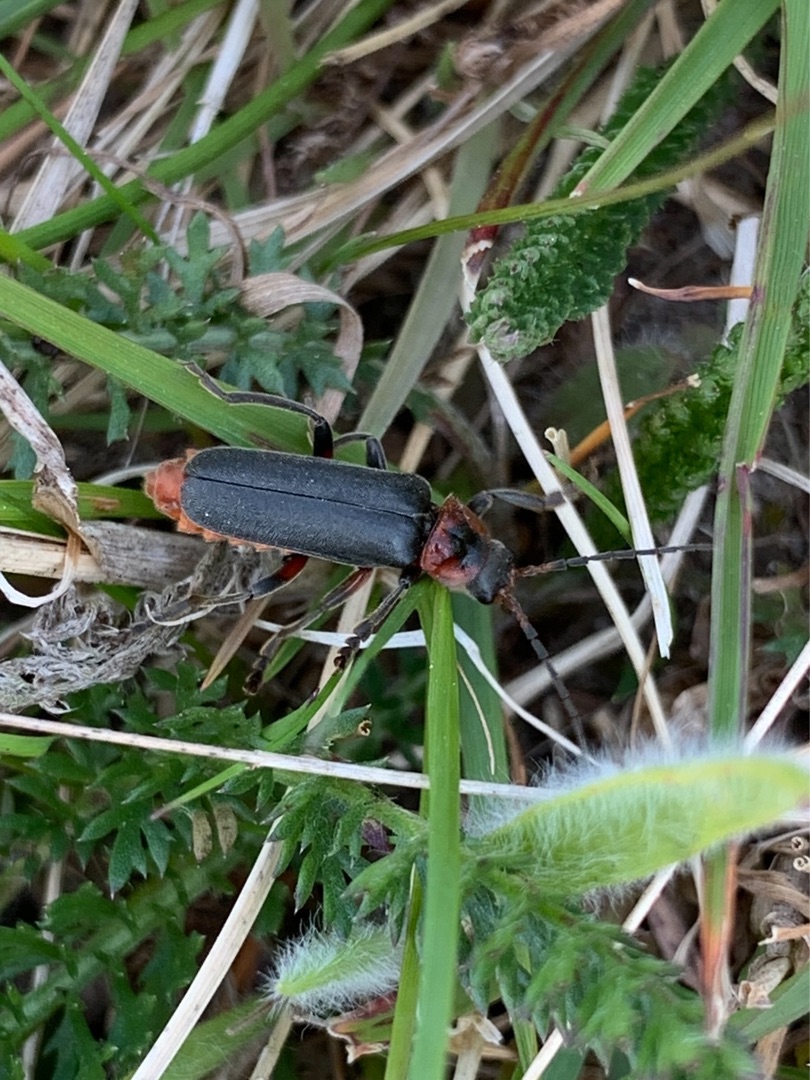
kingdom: Animalia
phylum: Arthropoda
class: Insecta
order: Coleoptera
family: Cantharidae
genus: Cantharis
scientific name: Cantharis rustica
